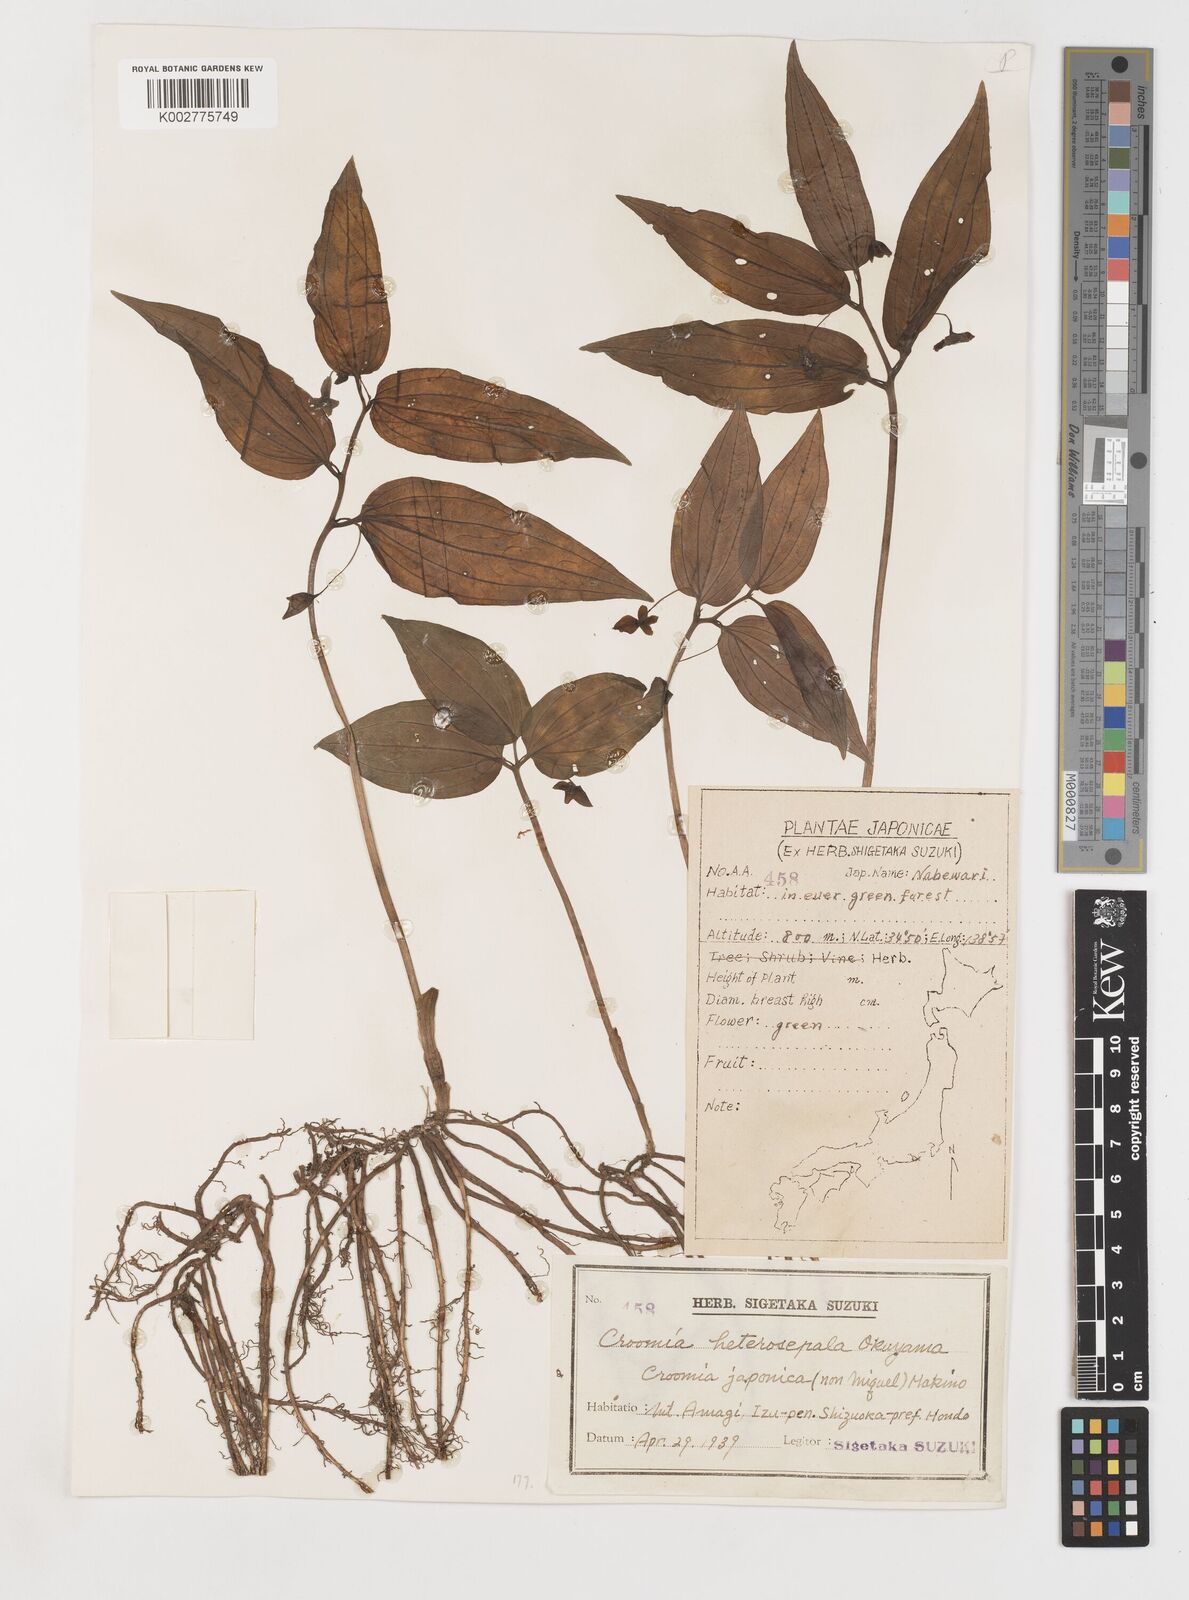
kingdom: Plantae
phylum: Tracheophyta
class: Liliopsida
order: Pandanales
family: Stemonaceae
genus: Croomia
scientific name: Croomia japonica
